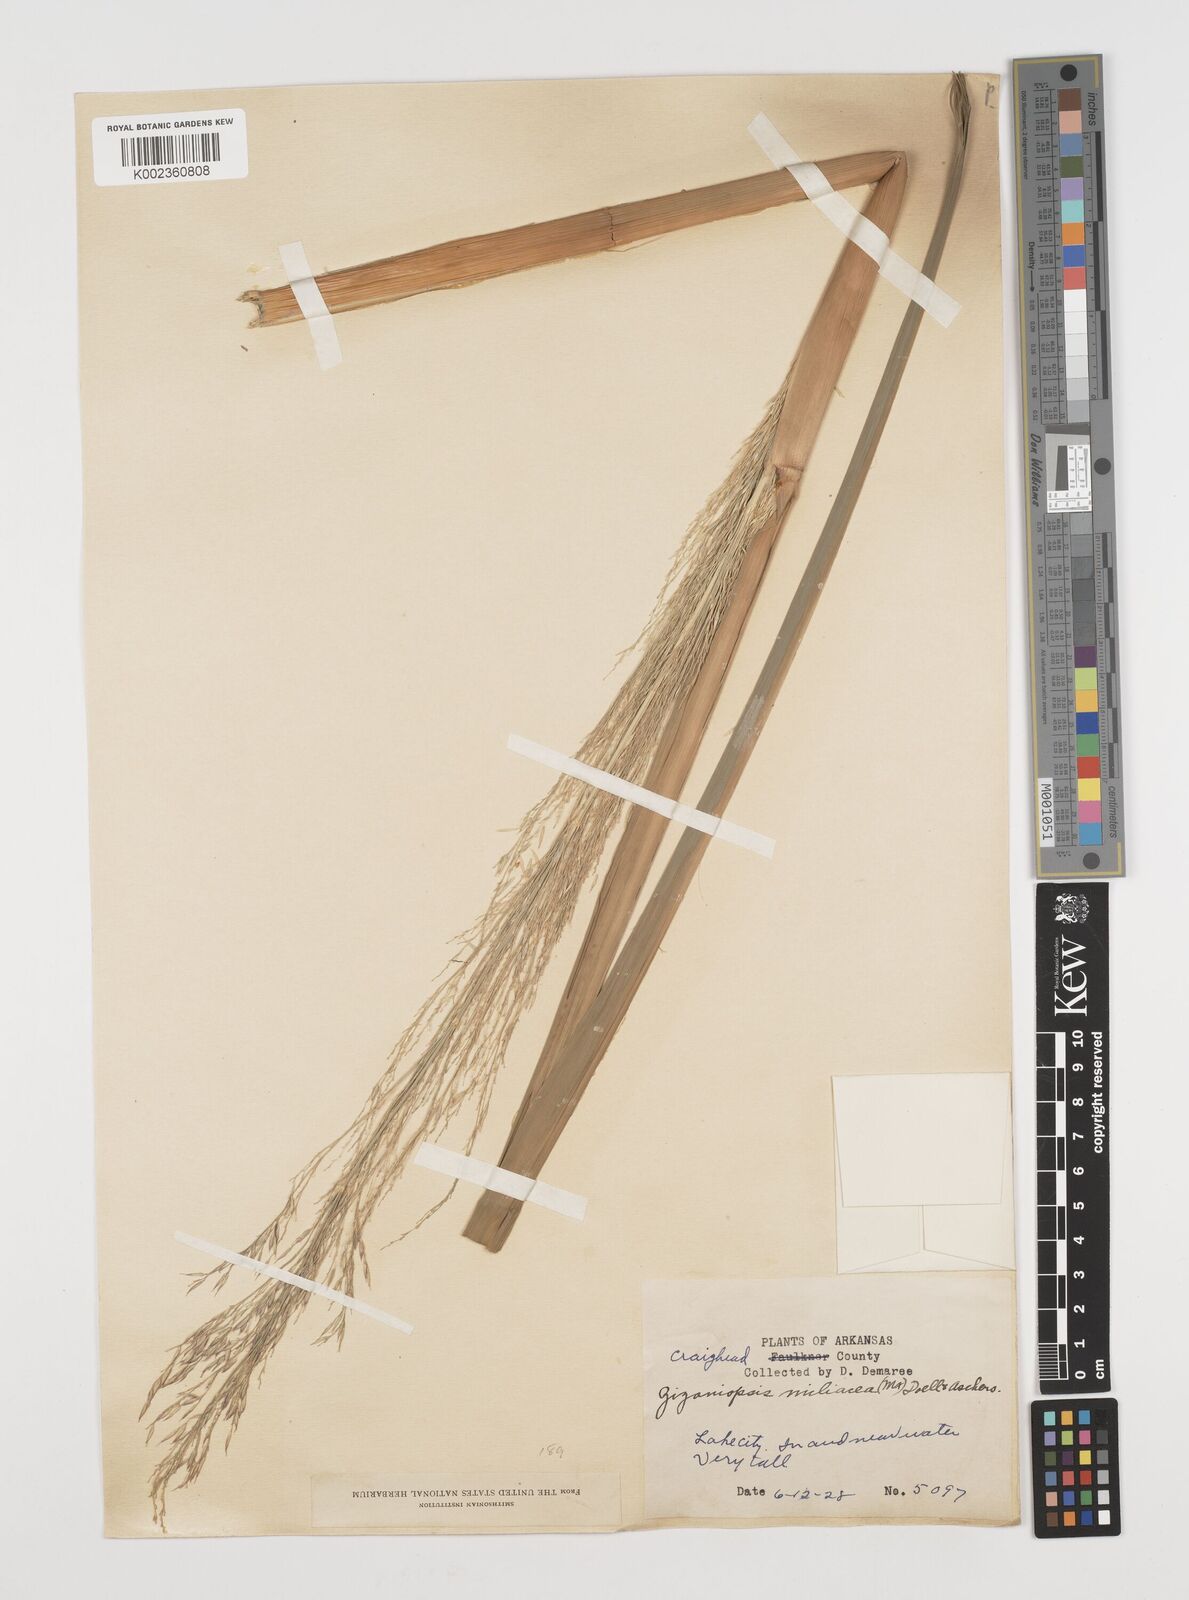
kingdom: Plantae
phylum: Tracheophyta
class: Liliopsida
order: Poales
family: Poaceae
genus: Zizaniopsis
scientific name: Zizaniopsis miliacea
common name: Giant-cutgrass
